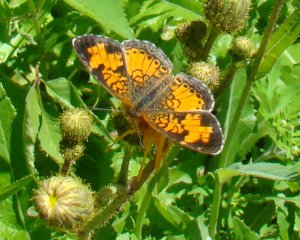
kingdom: Animalia
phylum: Arthropoda
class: Insecta
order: Lepidoptera
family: Nymphalidae
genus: Phyciodes
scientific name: Phyciodes tharos
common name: Northern Crescent
